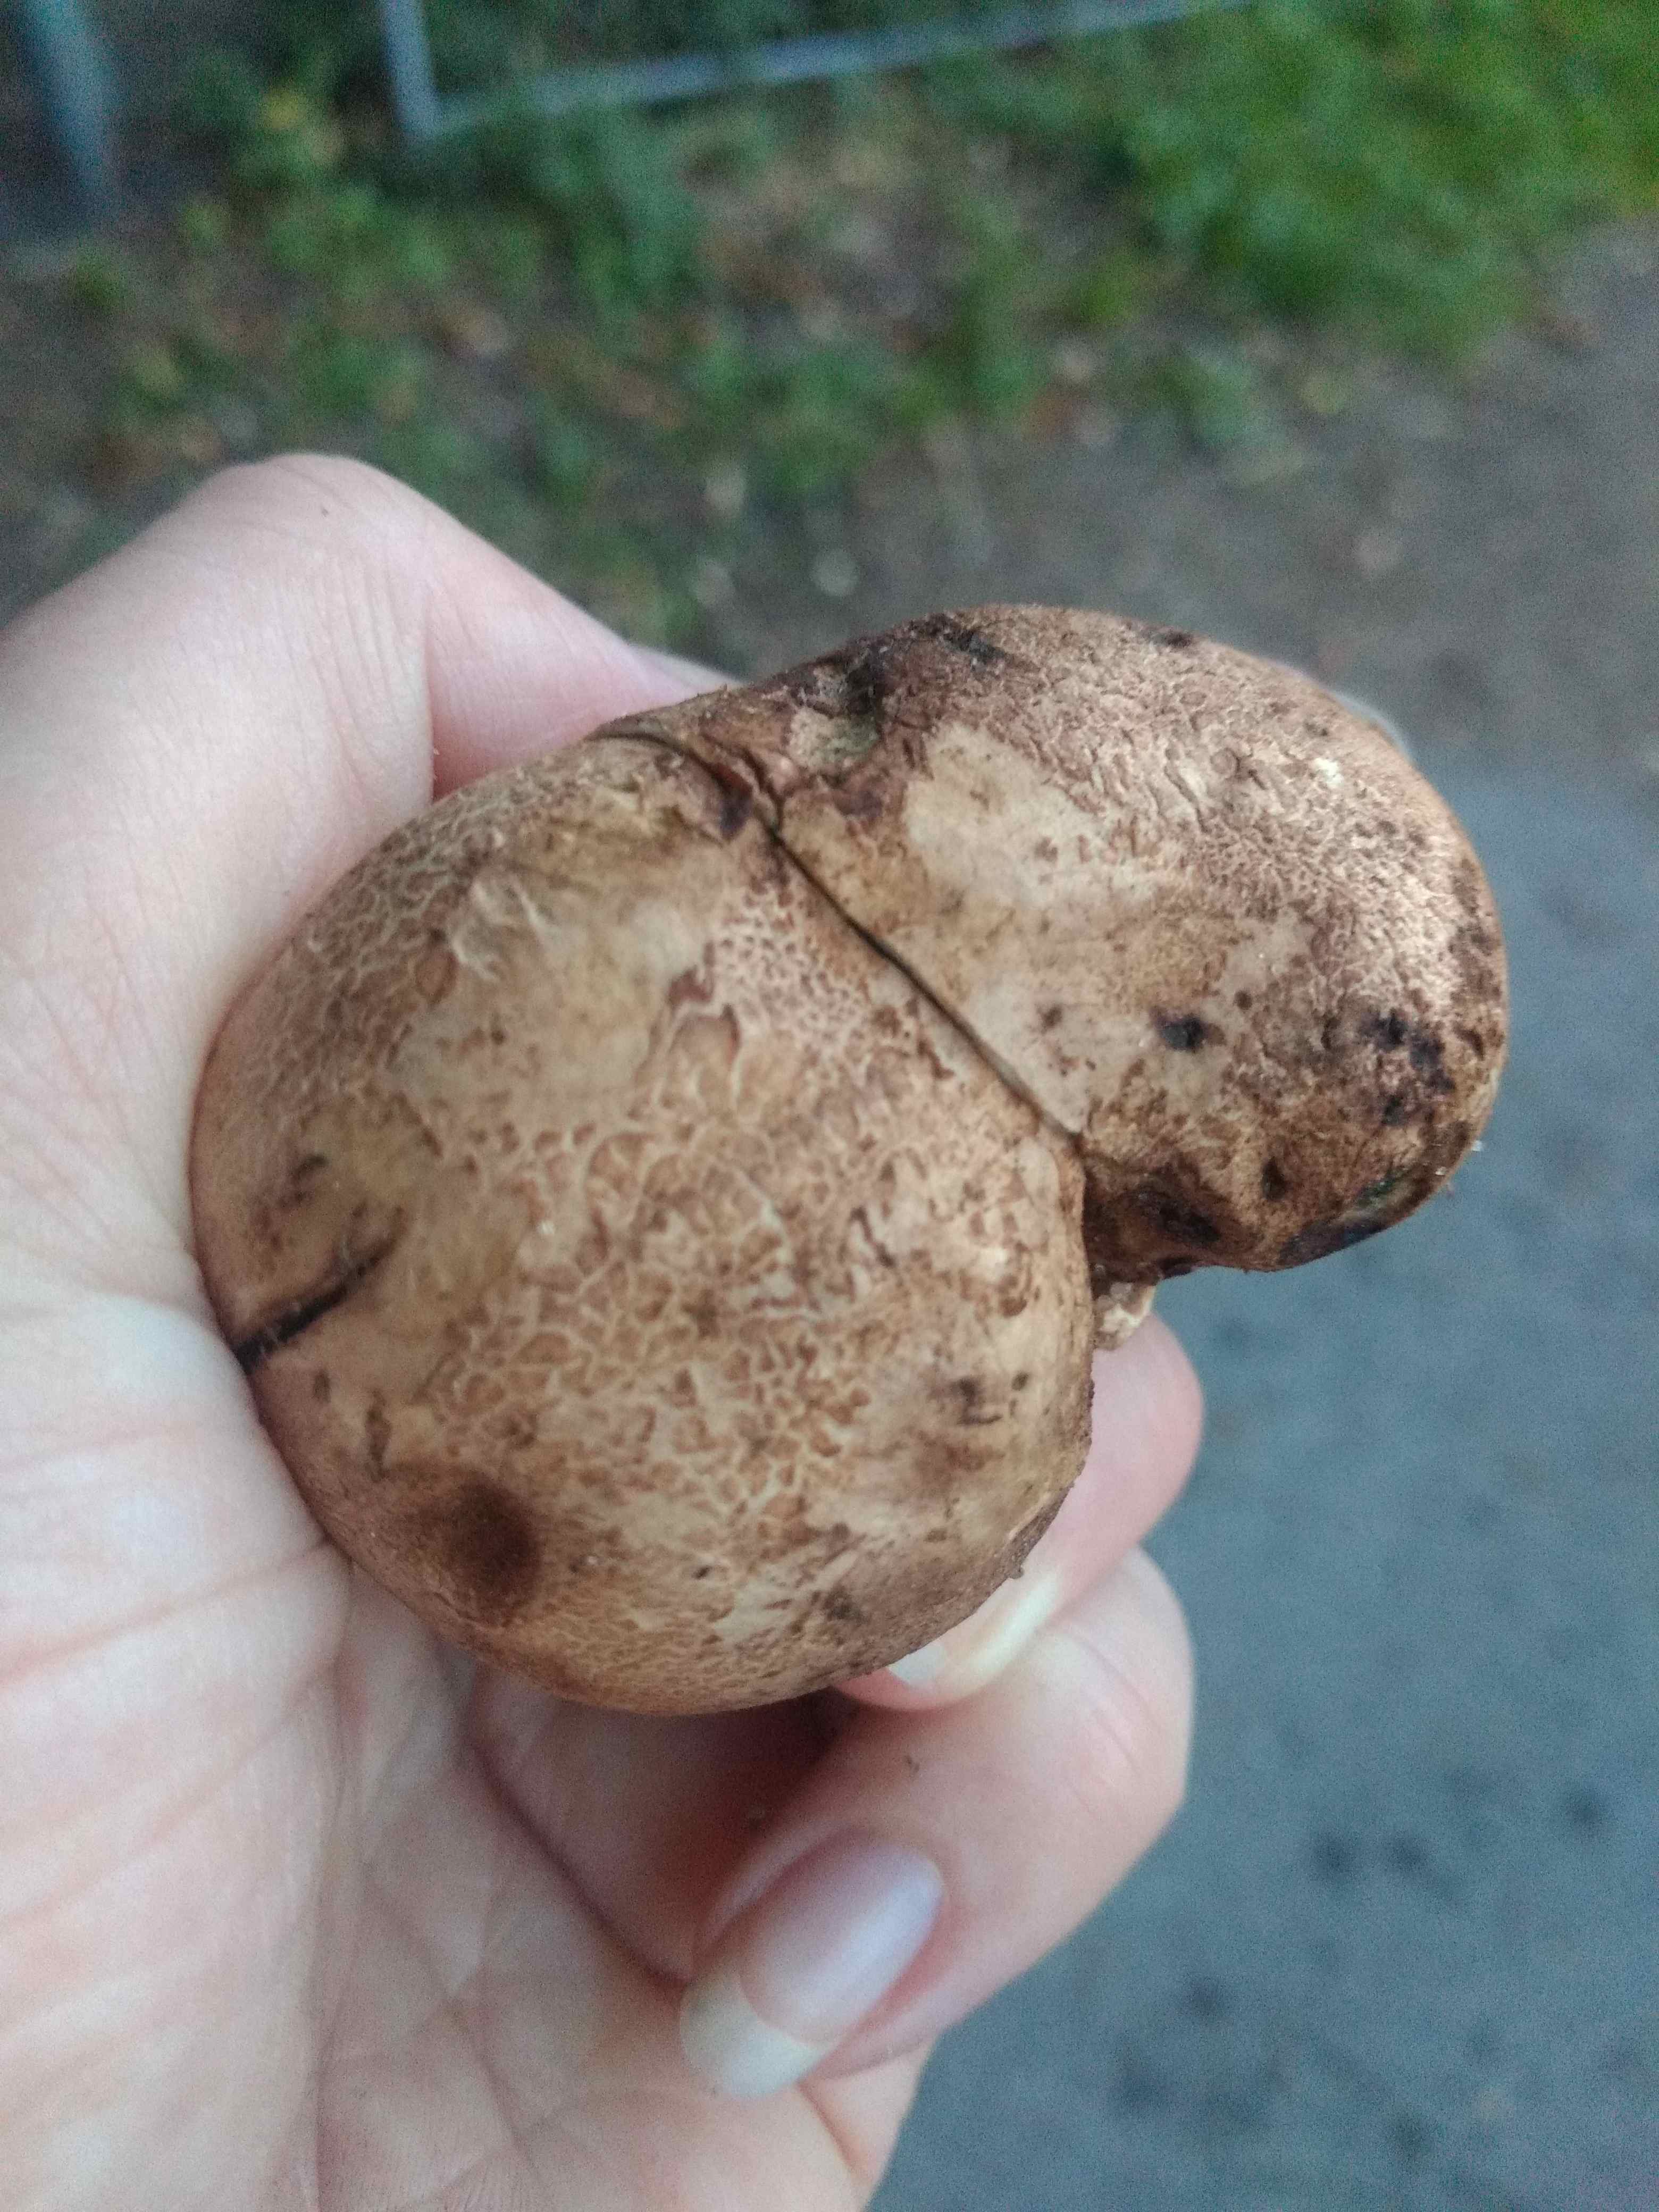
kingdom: Fungi
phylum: Basidiomycota
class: Agaricomycetes
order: Boletales
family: Sclerodermataceae
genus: Scleroderma
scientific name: Scleroderma bovista
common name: bovist-bruskbold
